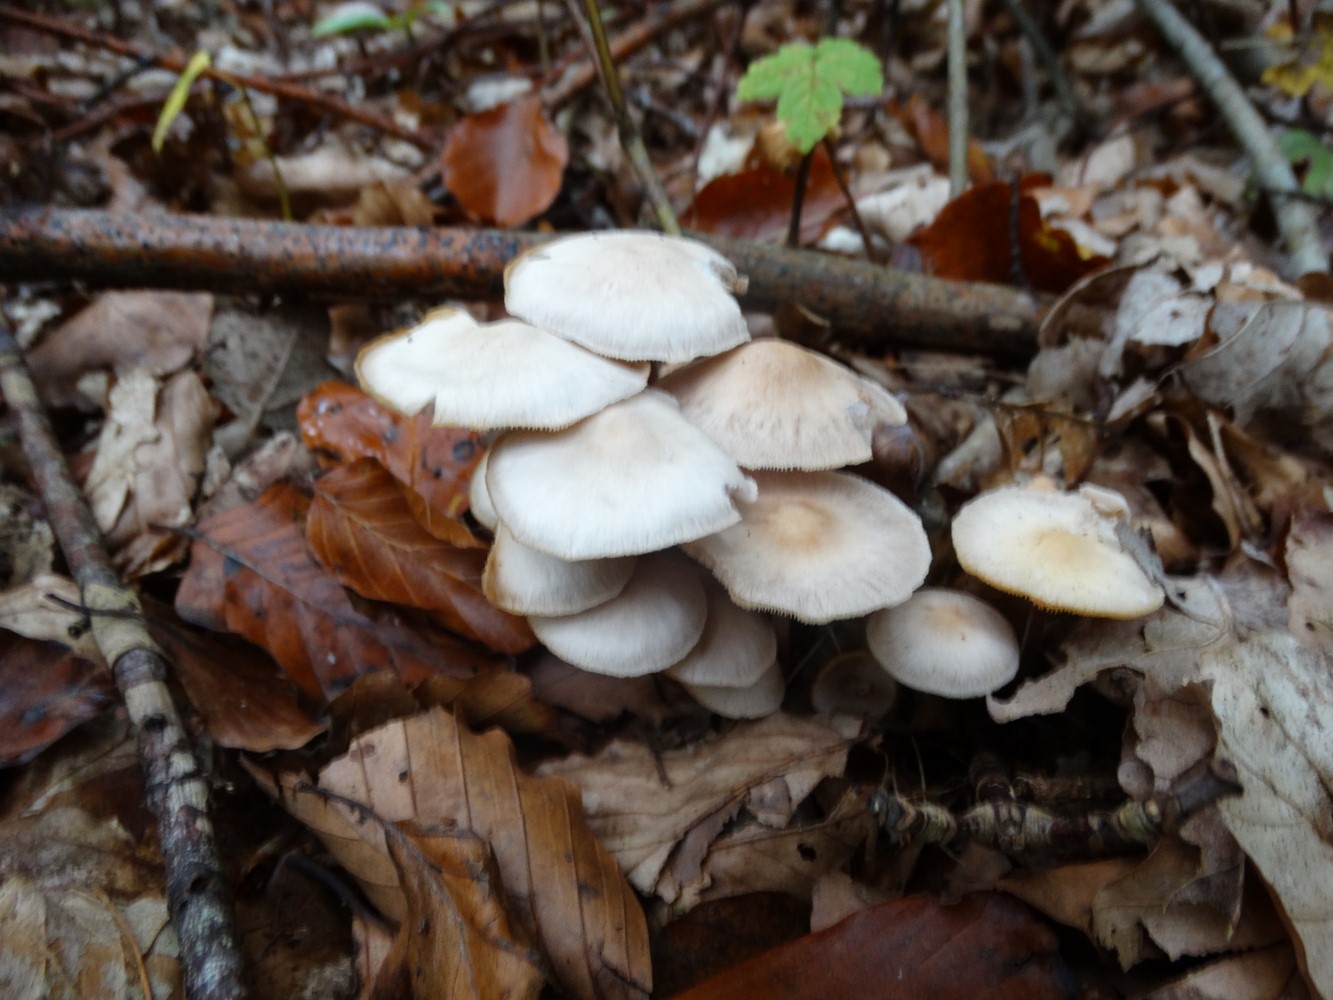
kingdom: Fungi
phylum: Basidiomycota
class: Agaricomycetes
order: Agaricales
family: Omphalotaceae
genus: Collybiopsis
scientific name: Collybiopsis confluens
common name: knippe-fladhat
